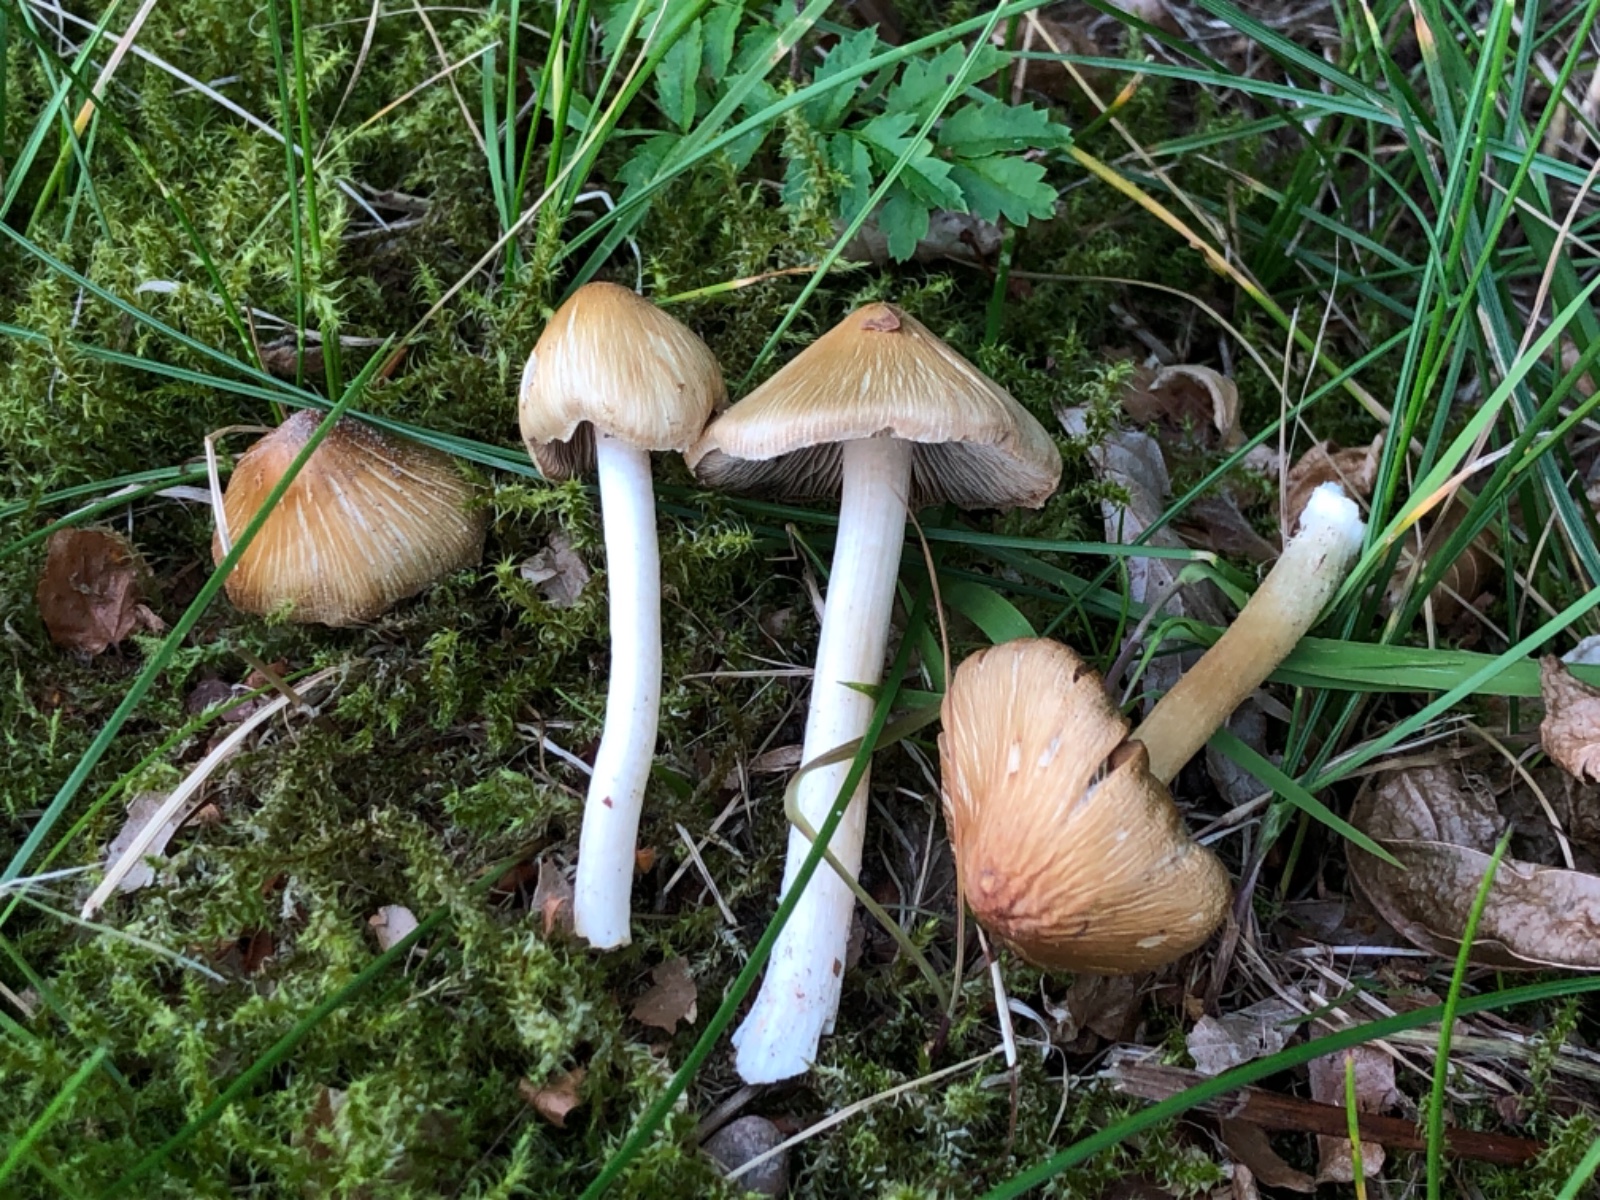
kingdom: Fungi
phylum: Basidiomycota
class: Agaricomycetes
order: Agaricales
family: Inocybaceae
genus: Inosperma
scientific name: Inosperma
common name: strågul trævlhat
